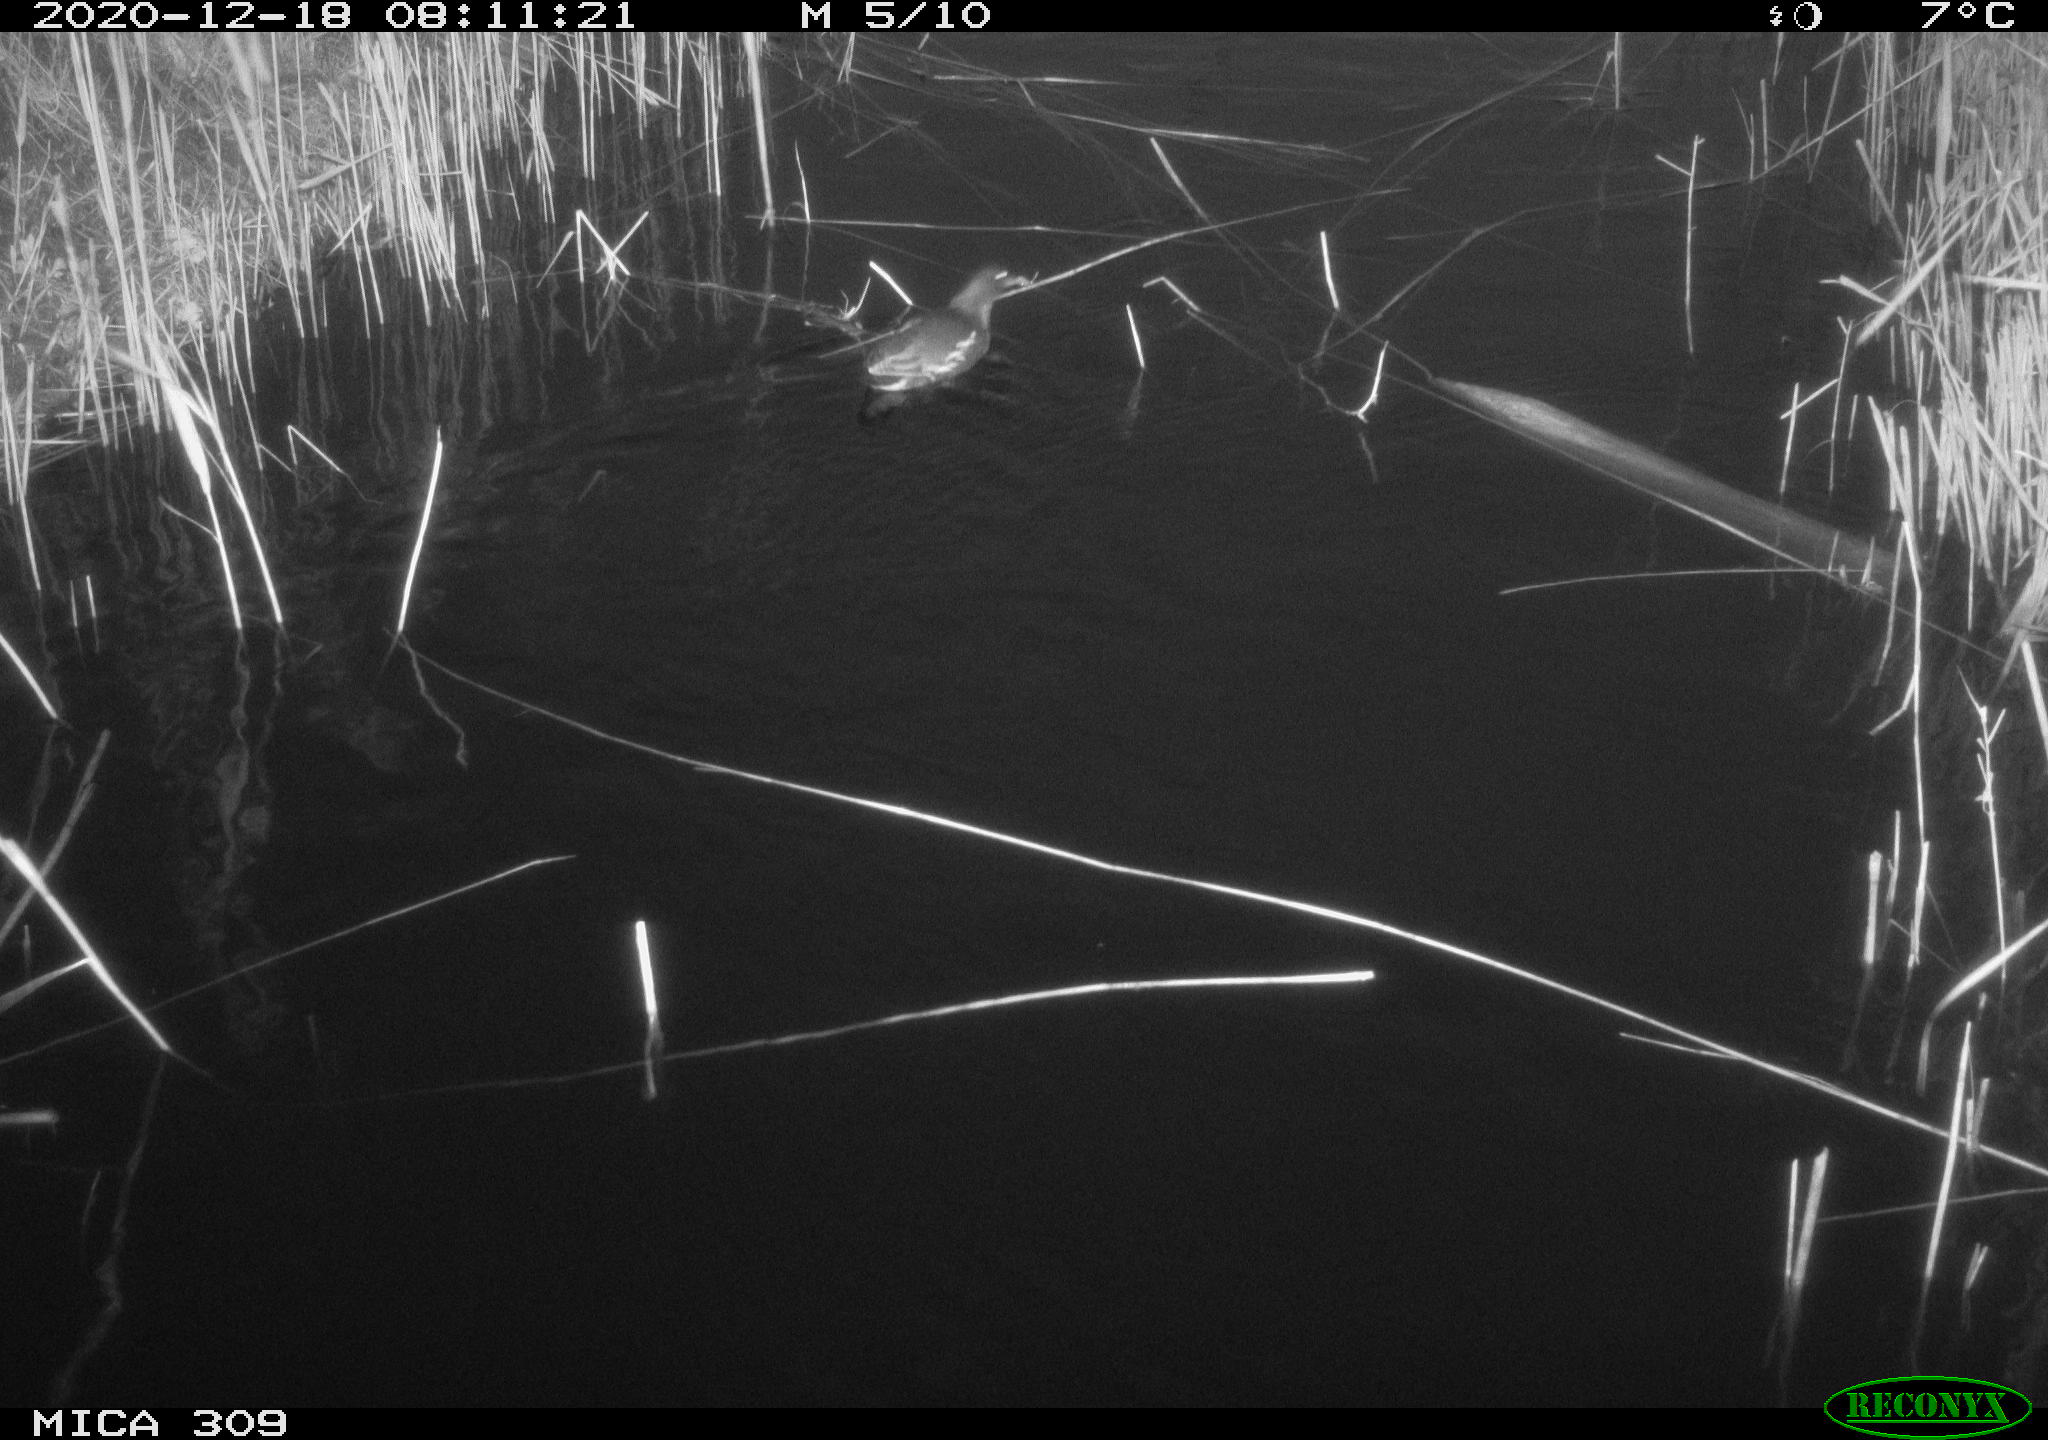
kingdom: Animalia
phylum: Chordata
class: Aves
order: Gruiformes
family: Rallidae
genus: Gallinula
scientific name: Gallinula chloropus
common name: Common moorhen
